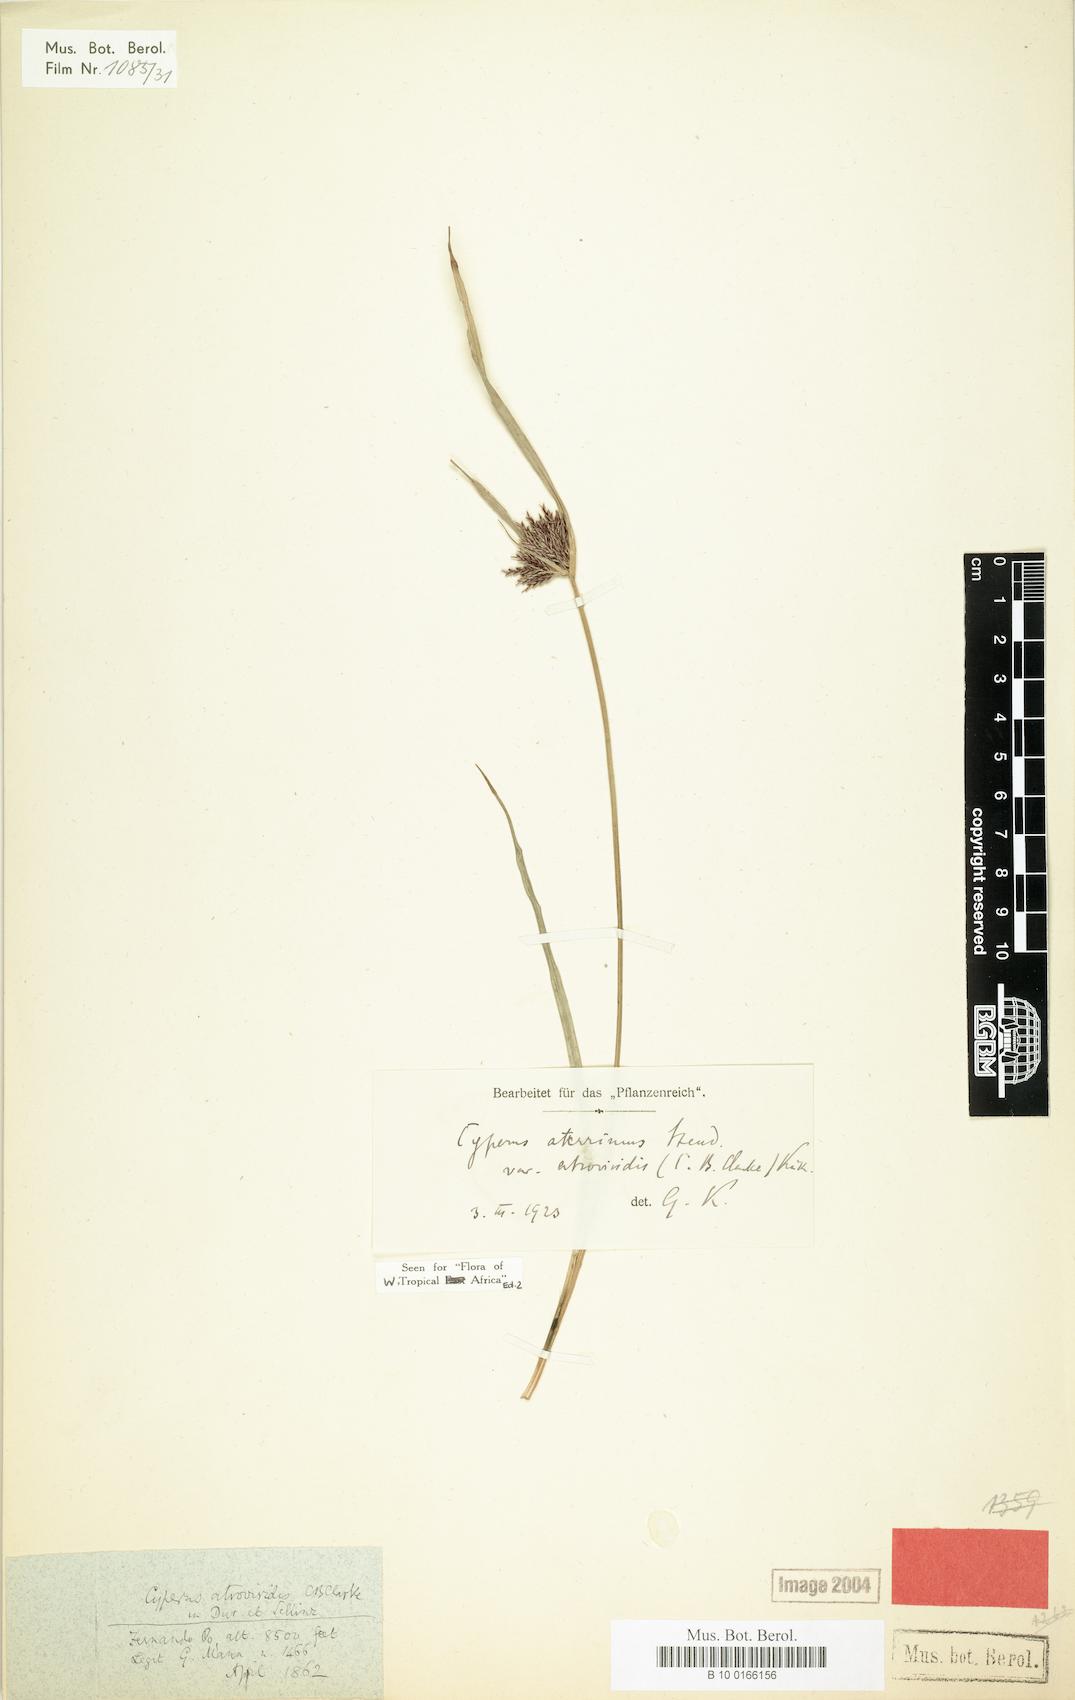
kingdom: Plantae
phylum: Tracheophyta
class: Liliopsida
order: Poales
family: Cyperaceae
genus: Cyperus
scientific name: Cyperus aterrimus
